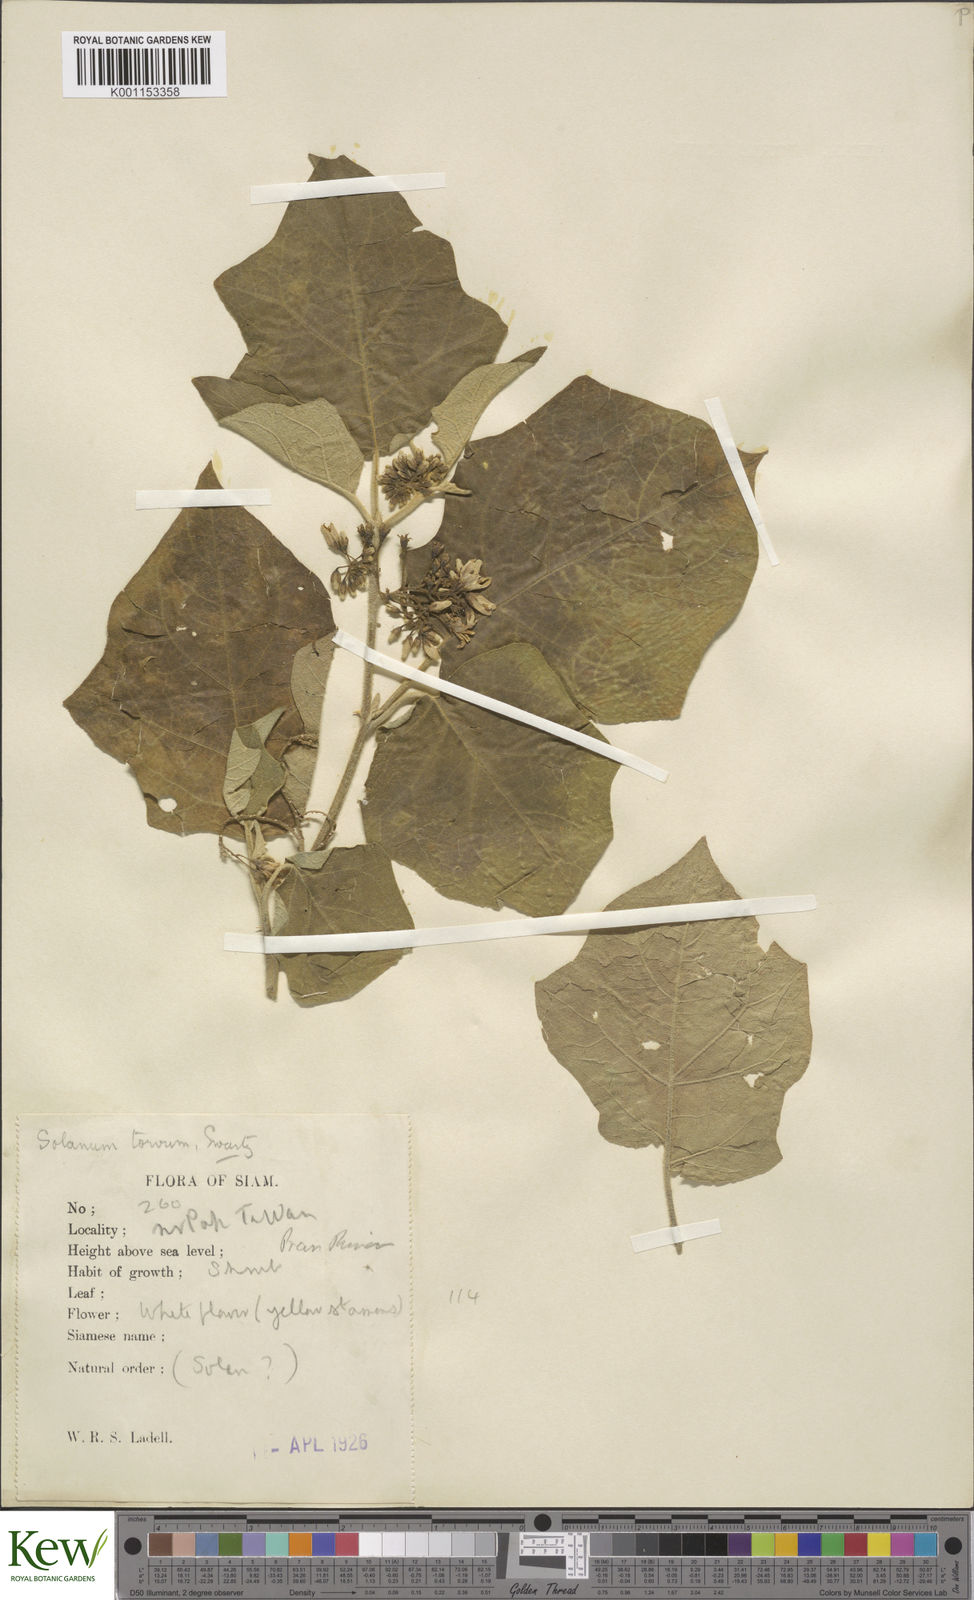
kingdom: Plantae
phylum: Tracheophyta
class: Magnoliopsida
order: Solanales
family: Solanaceae
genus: Solanum
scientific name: Solanum torvum
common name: Turkey berry
